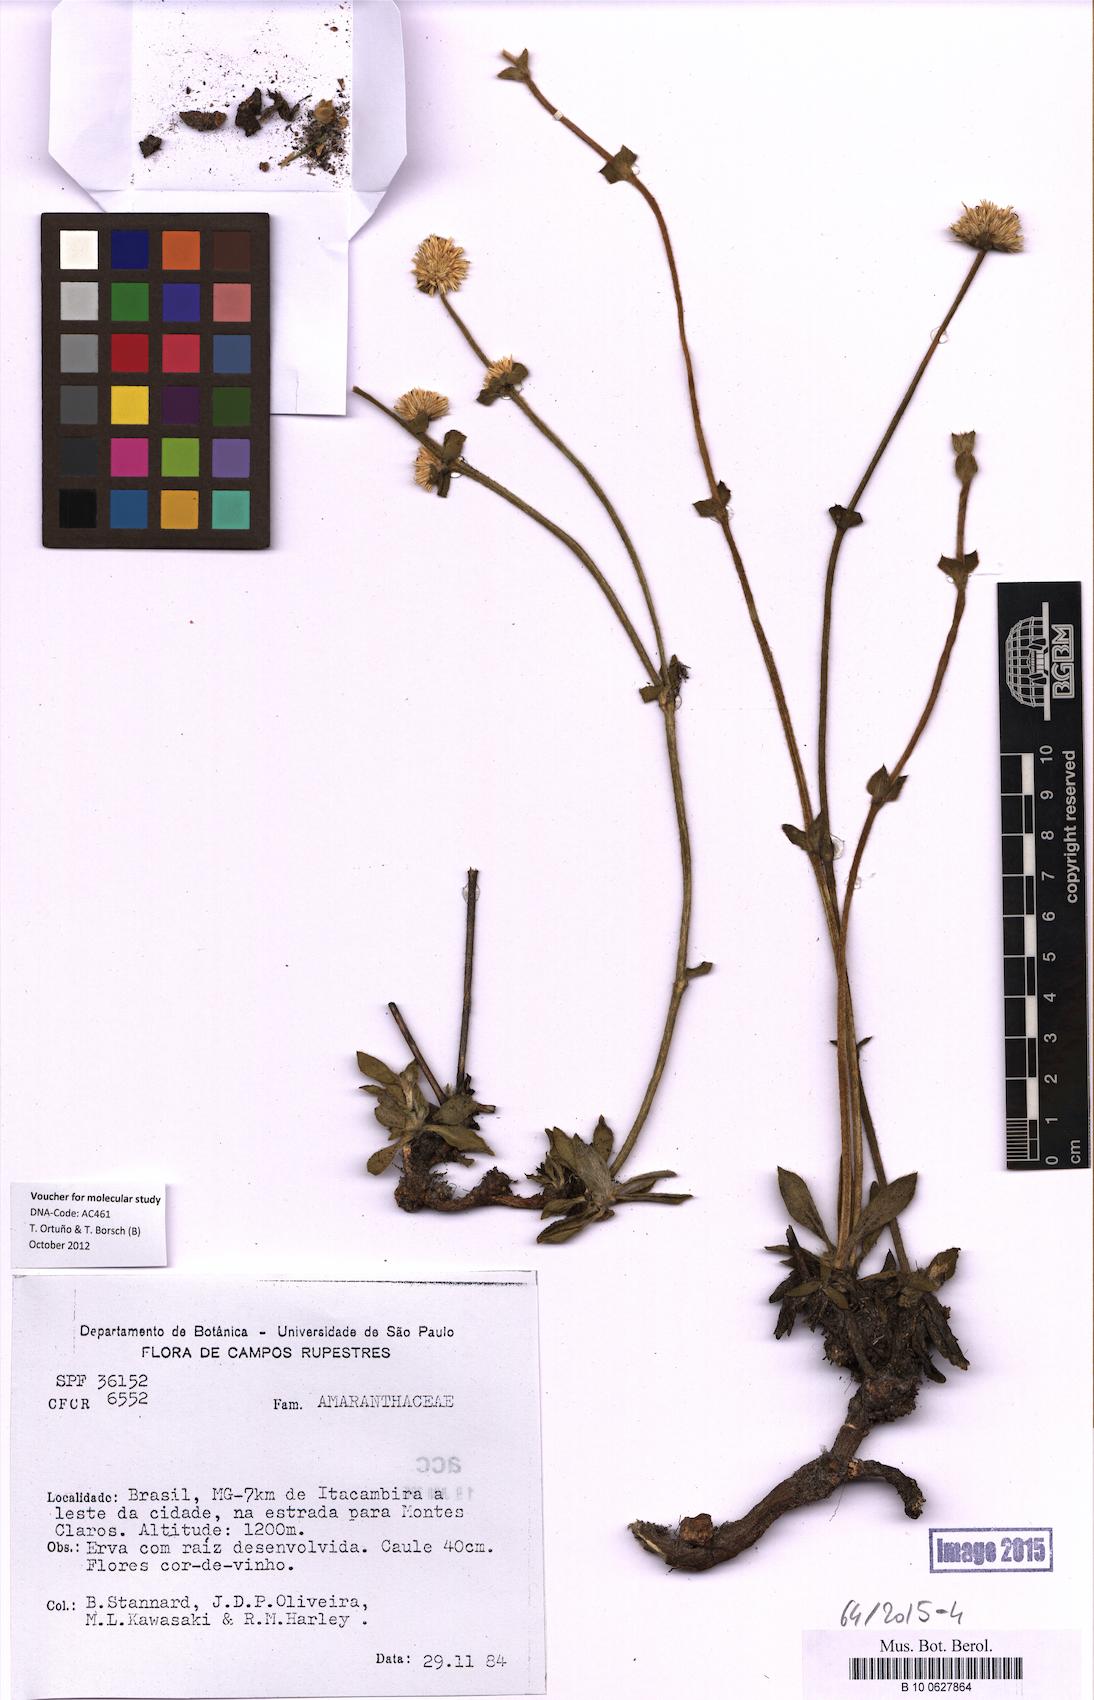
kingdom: Plantae
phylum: Tracheophyta
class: Magnoliopsida
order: Caryophyllales
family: Amaranthaceae
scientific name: Amaranthaceae
